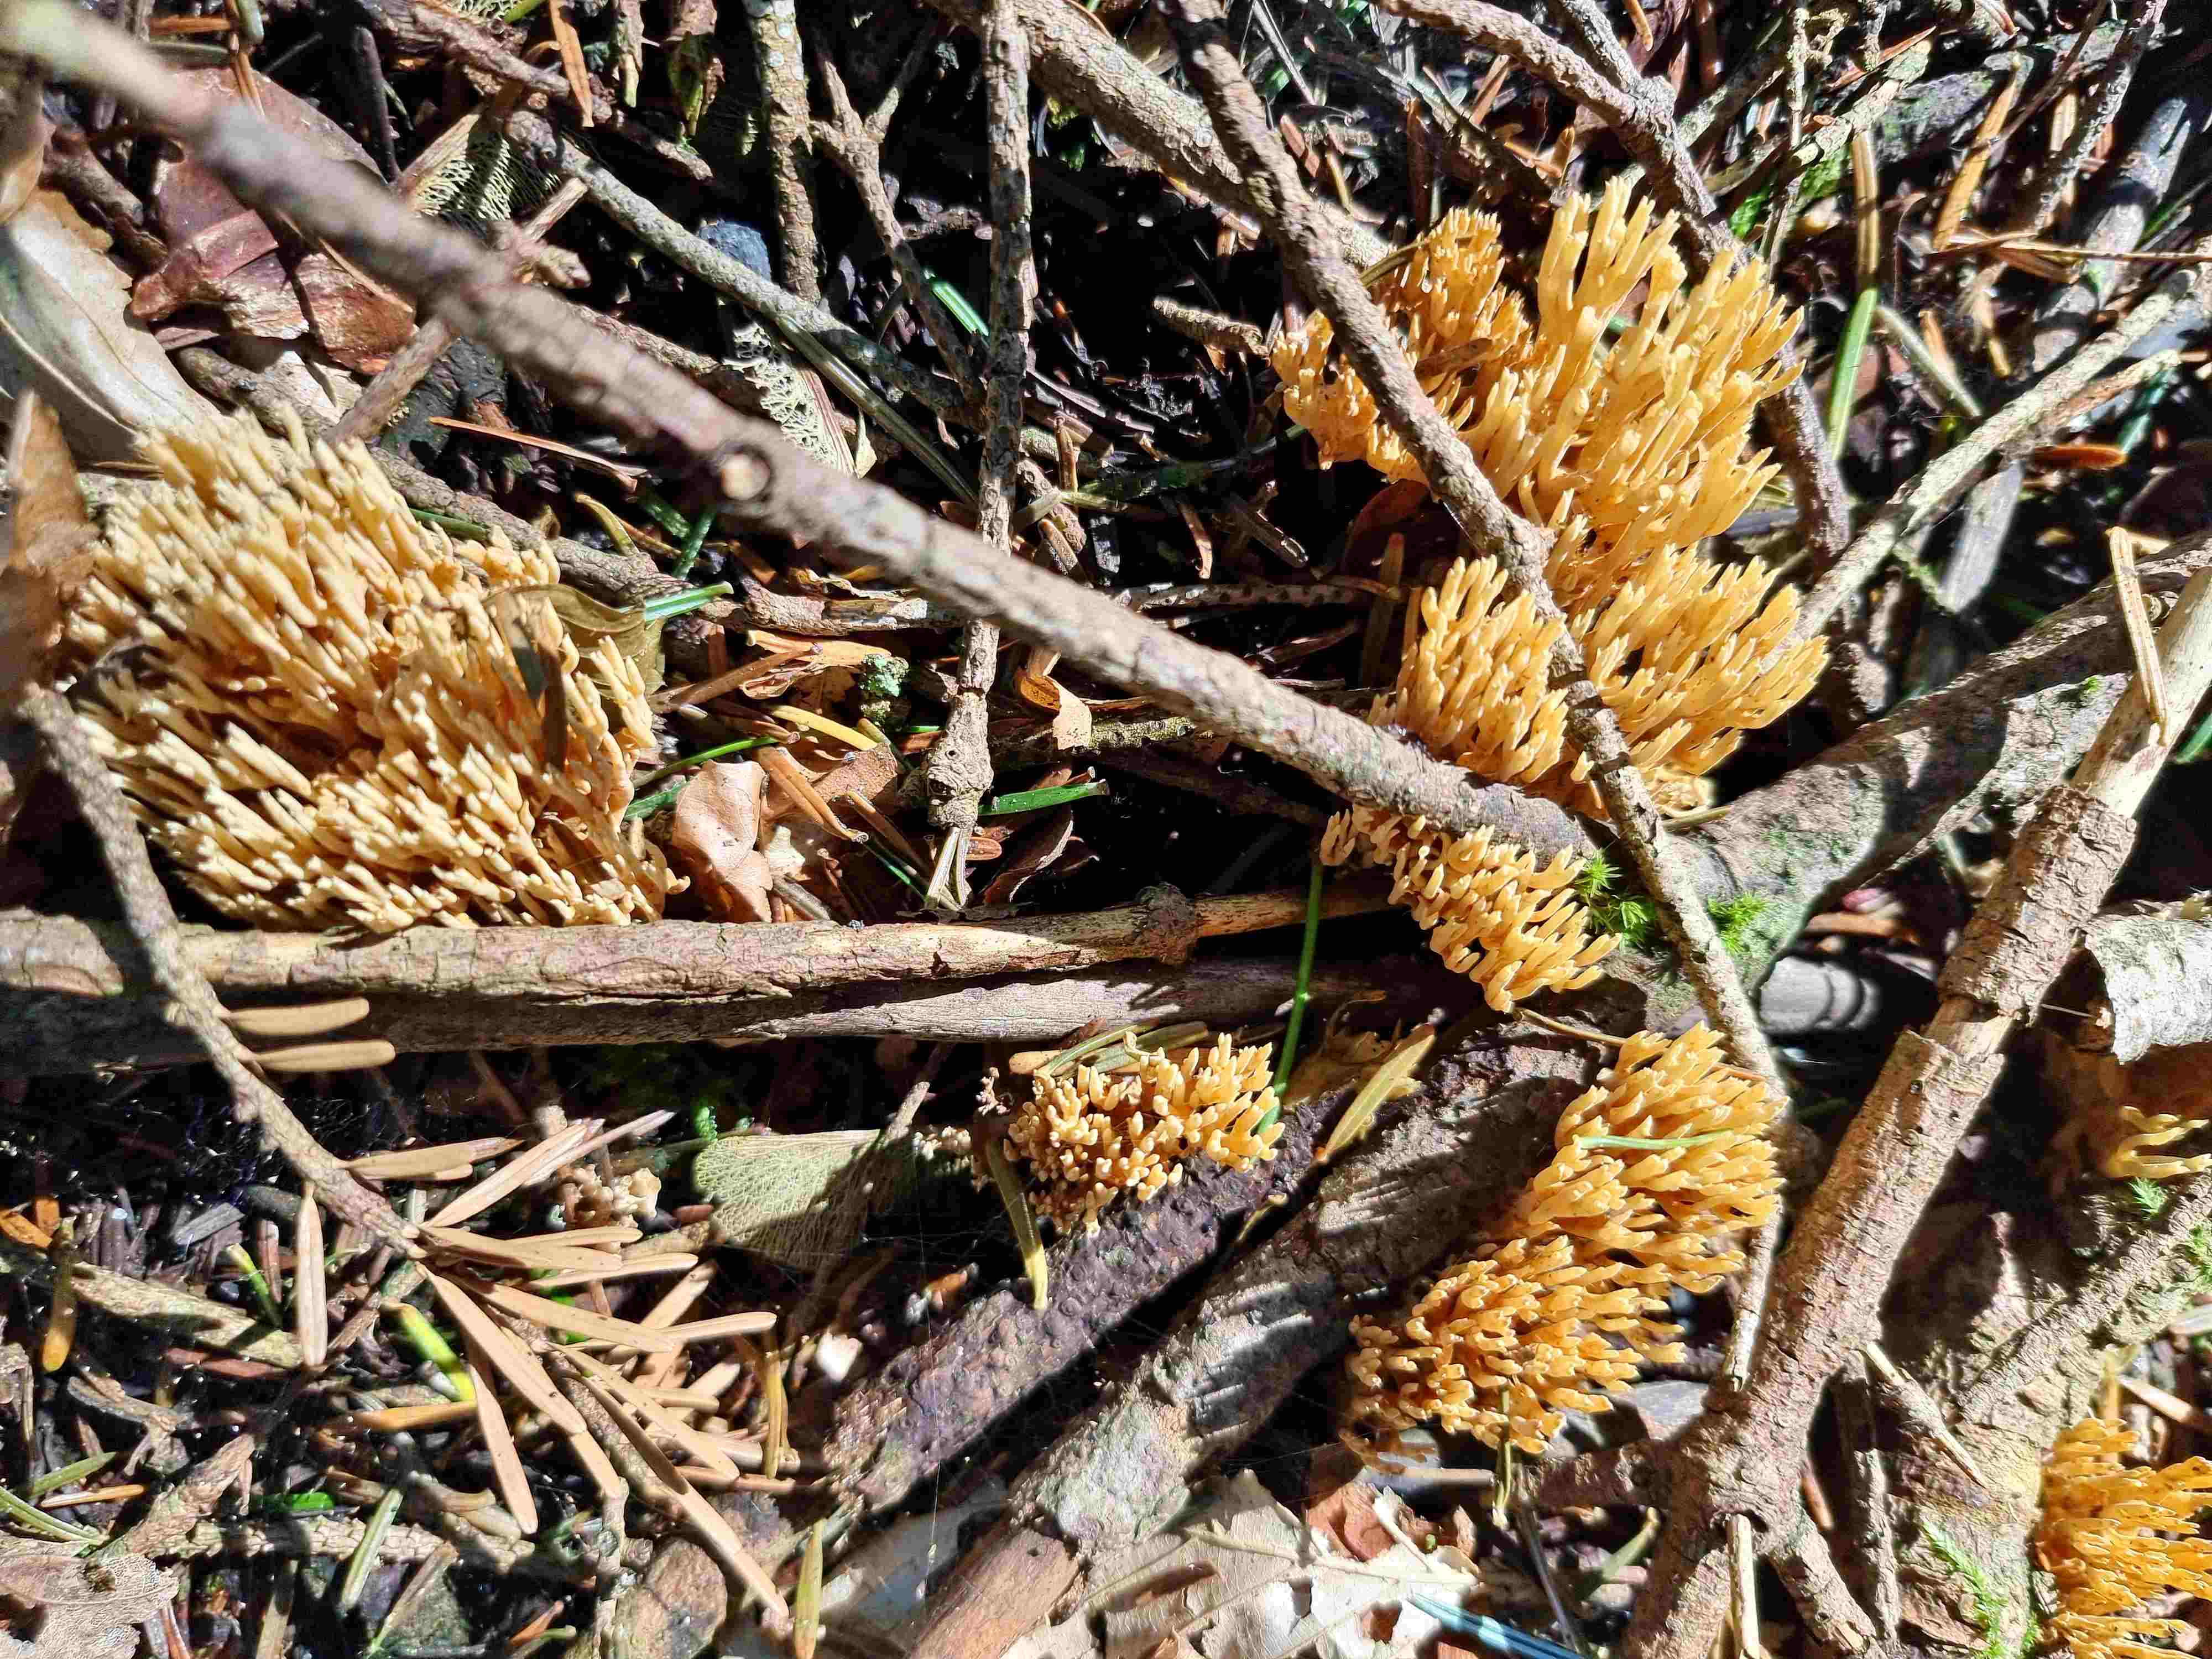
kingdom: Fungi
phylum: Basidiomycota
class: Agaricomycetes
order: Gomphales
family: Gomphaceae
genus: Phaeoclavulina
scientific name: Phaeoclavulina eumorpha
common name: gran-koralsvamp
